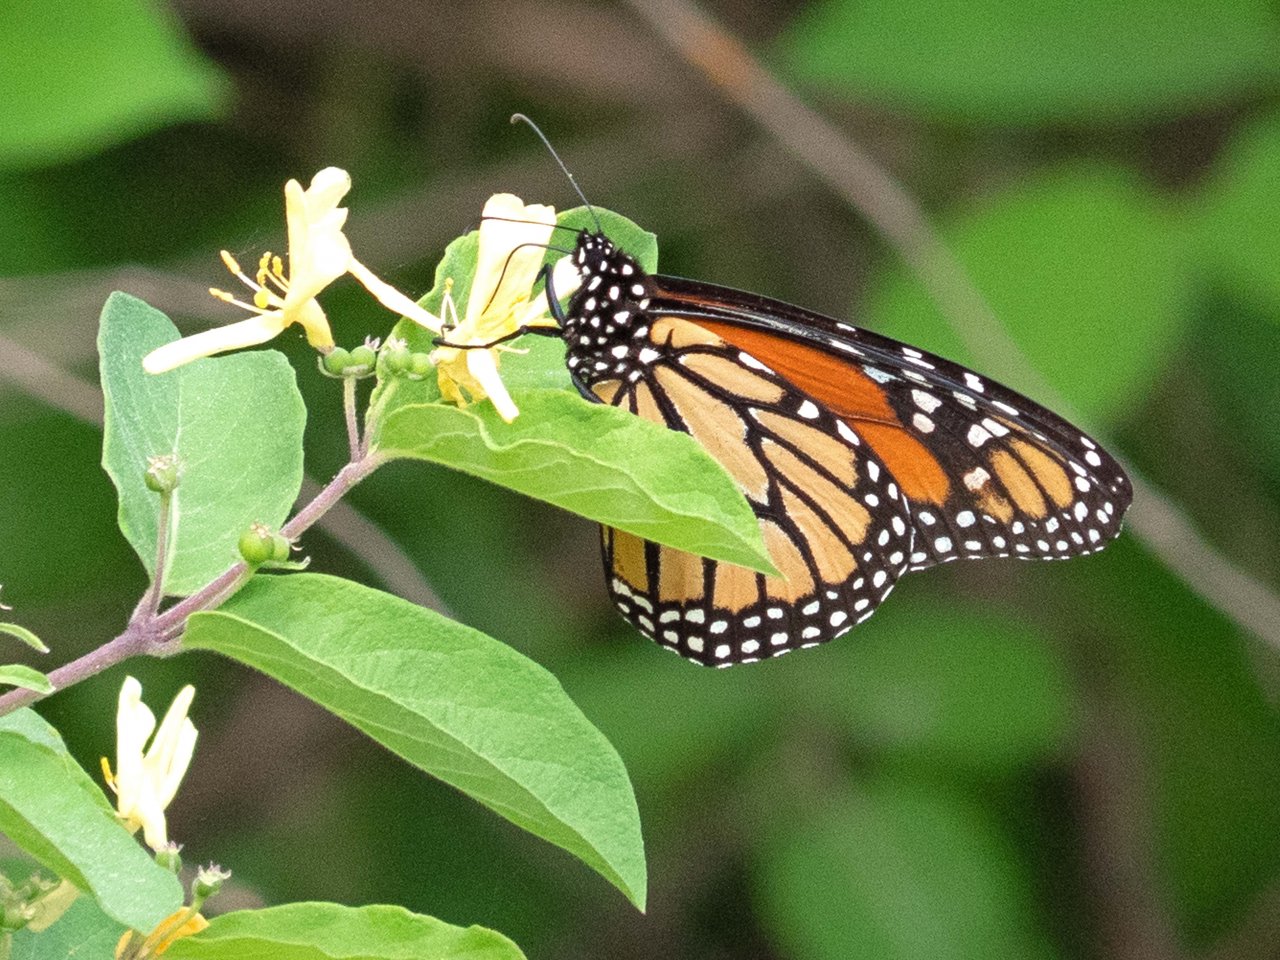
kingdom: Animalia
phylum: Arthropoda
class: Insecta
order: Lepidoptera
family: Nymphalidae
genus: Danaus
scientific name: Danaus plexippus
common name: Monarch
